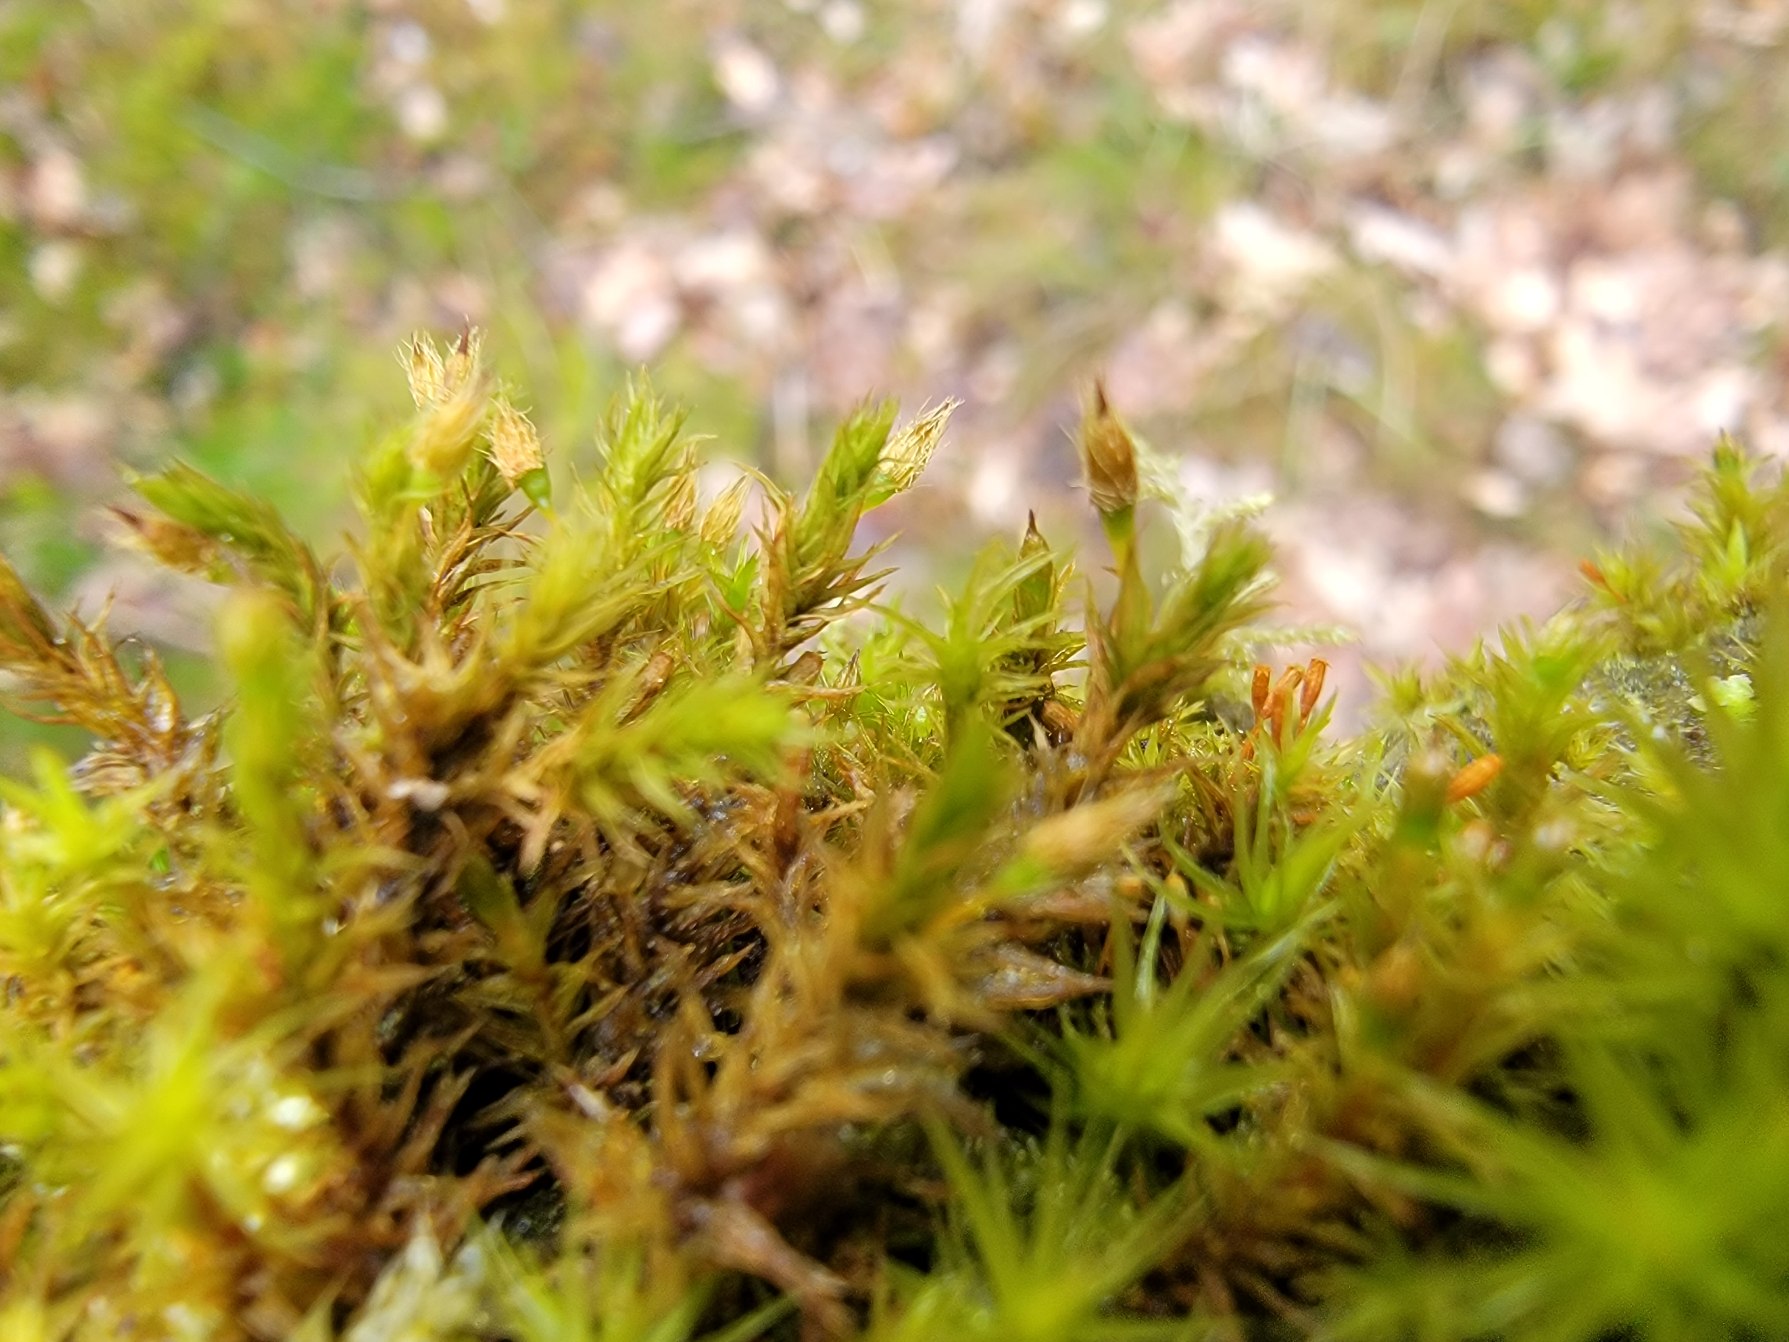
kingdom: Plantae
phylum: Bryophyta
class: Bryopsida
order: Orthotrichales
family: Orthotrichaceae
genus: Lewinskya
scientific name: Lewinskya speciosa
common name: Kortstribet furehætte
